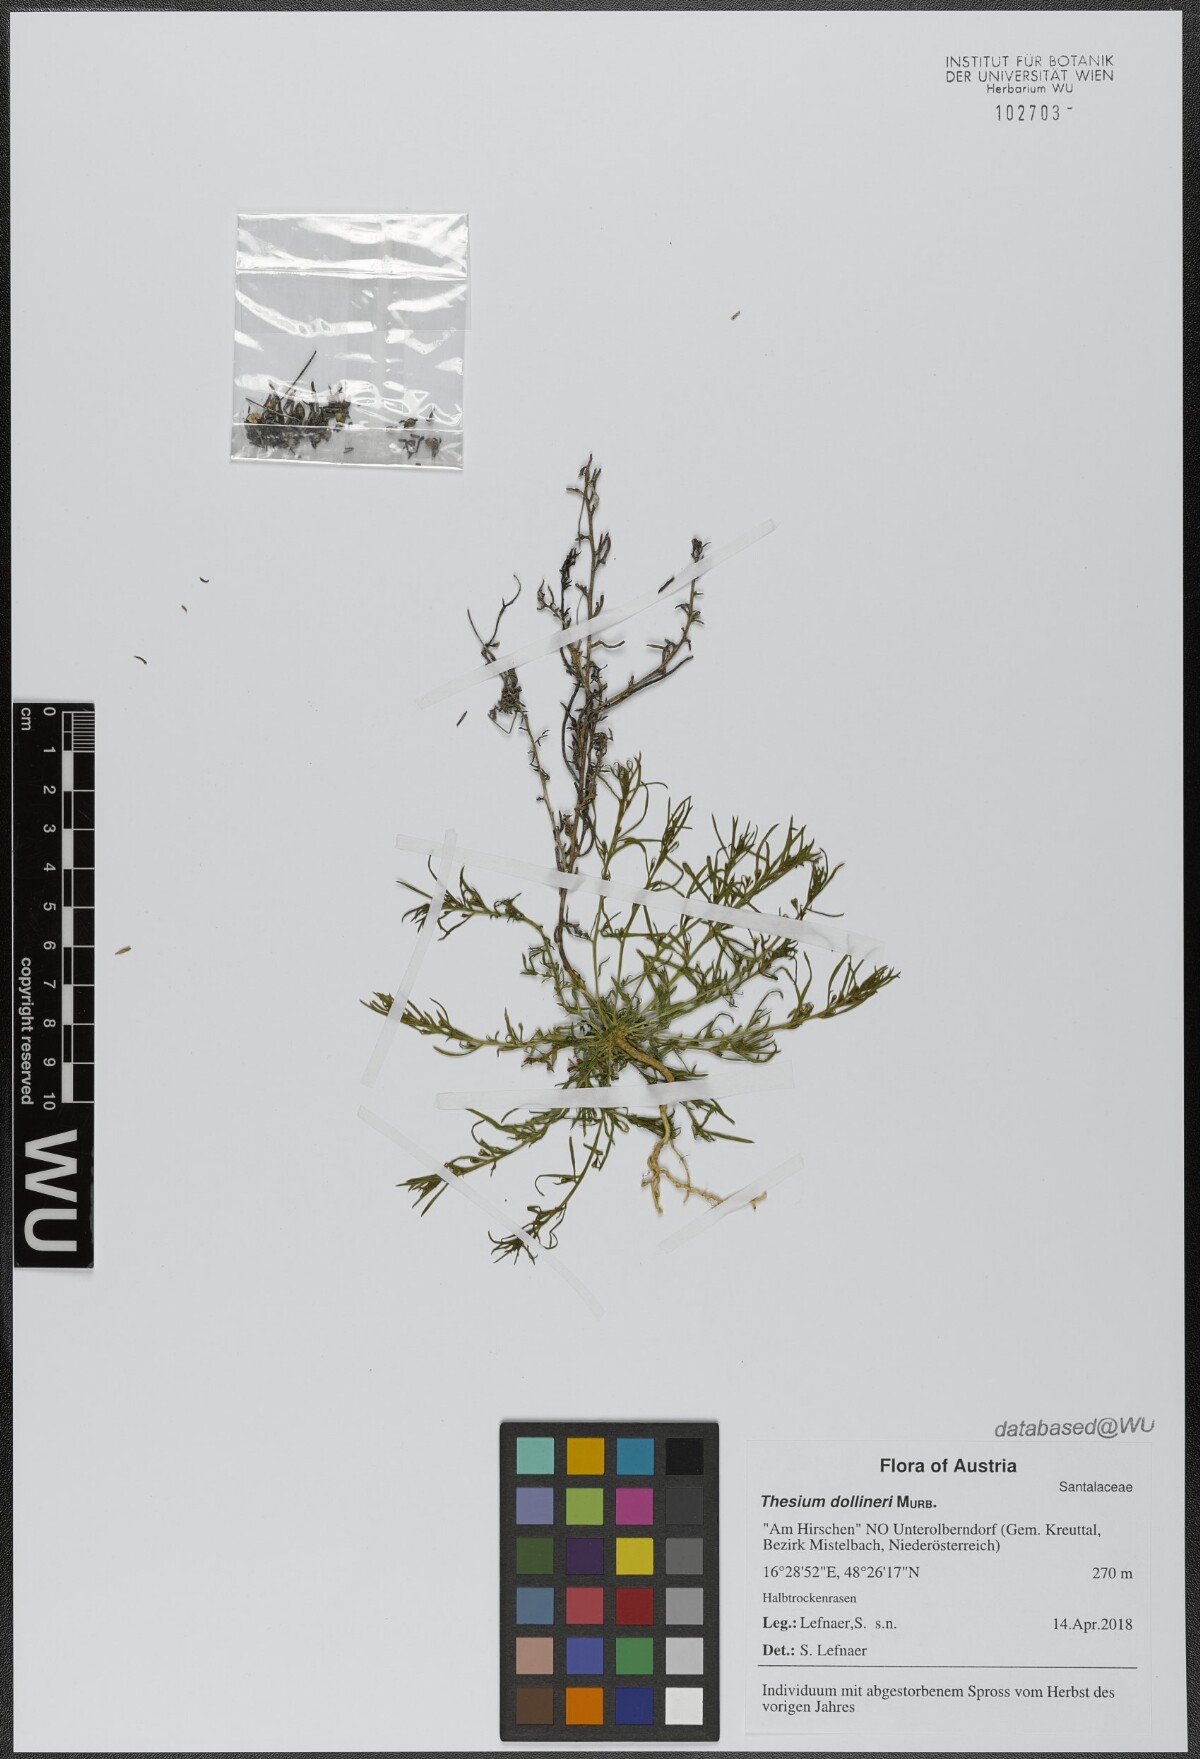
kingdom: Plantae
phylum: Tracheophyta
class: Magnoliopsida
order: Santalales
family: Thesiaceae
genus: Thesium
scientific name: Thesium dollineri
